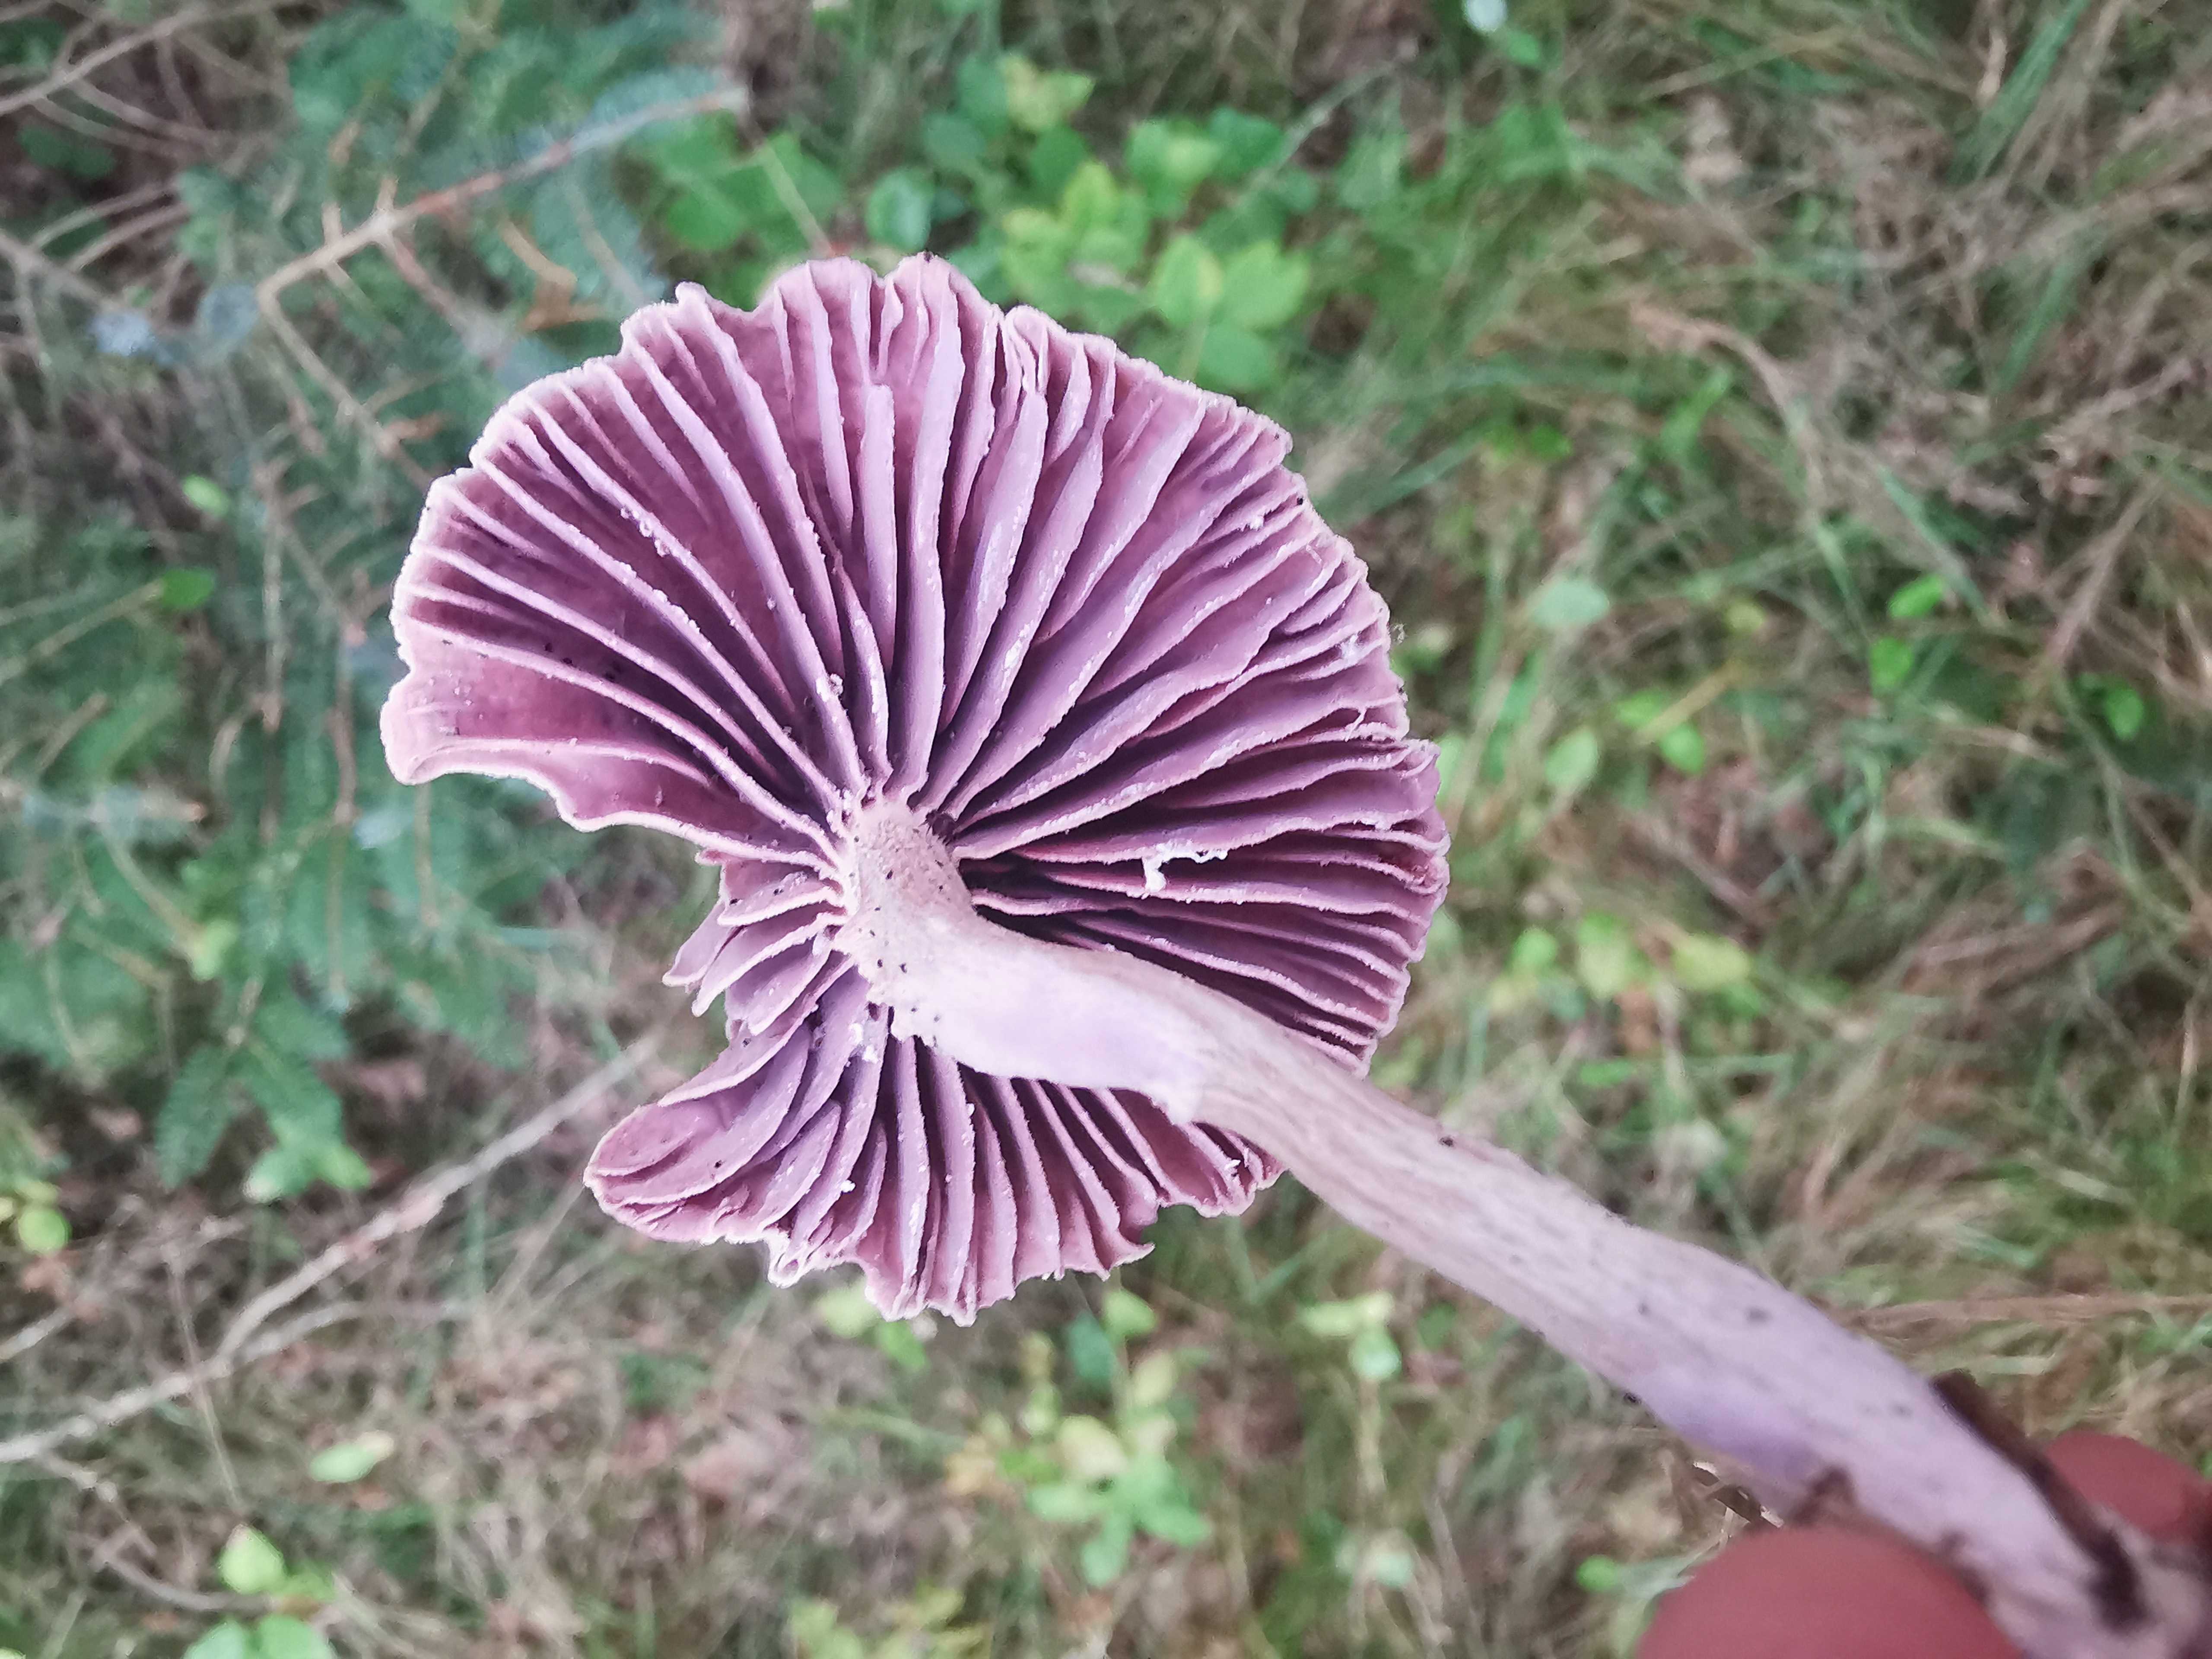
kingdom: Fungi
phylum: Basidiomycota
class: Agaricomycetes
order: Agaricales
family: Hydnangiaceae
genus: Laccaria
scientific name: Laccaria amethystina
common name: violet ametysthat
